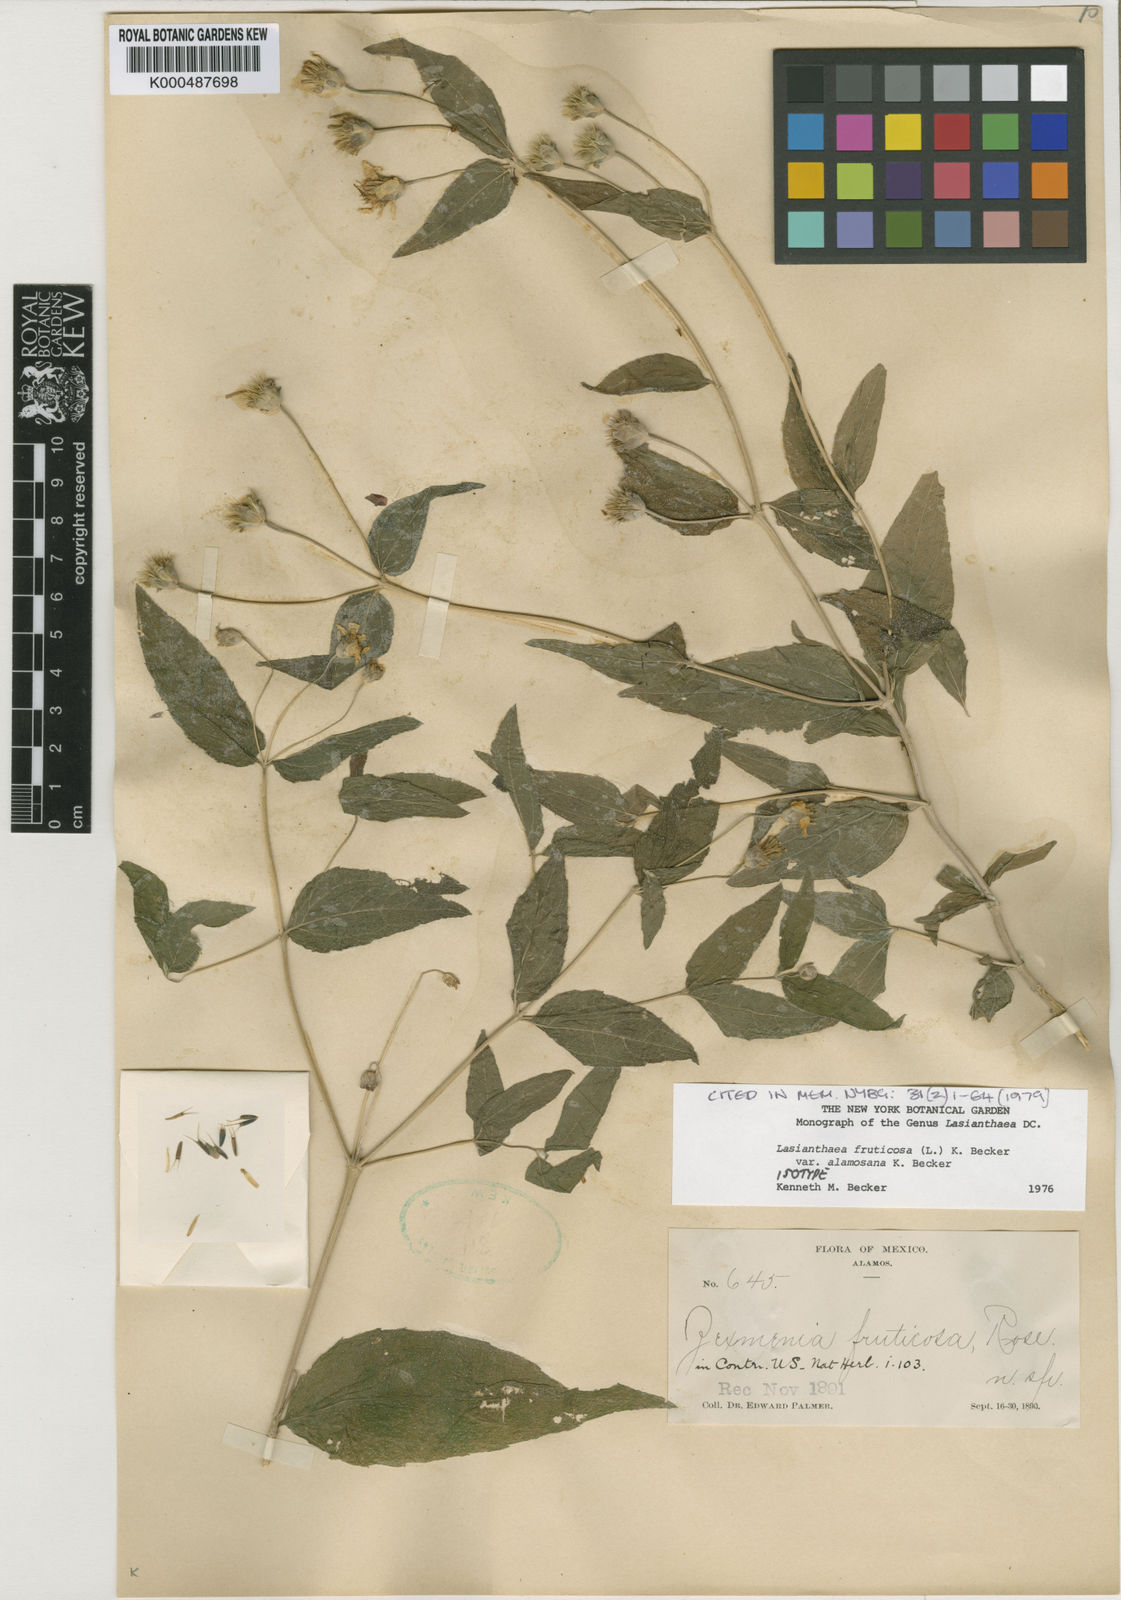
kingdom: Plantae
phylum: Tracheophyta
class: Magnoliopsida
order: Asterales
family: Asteraceae
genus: Lasianthaea
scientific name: Lasianthaea fruticosa
